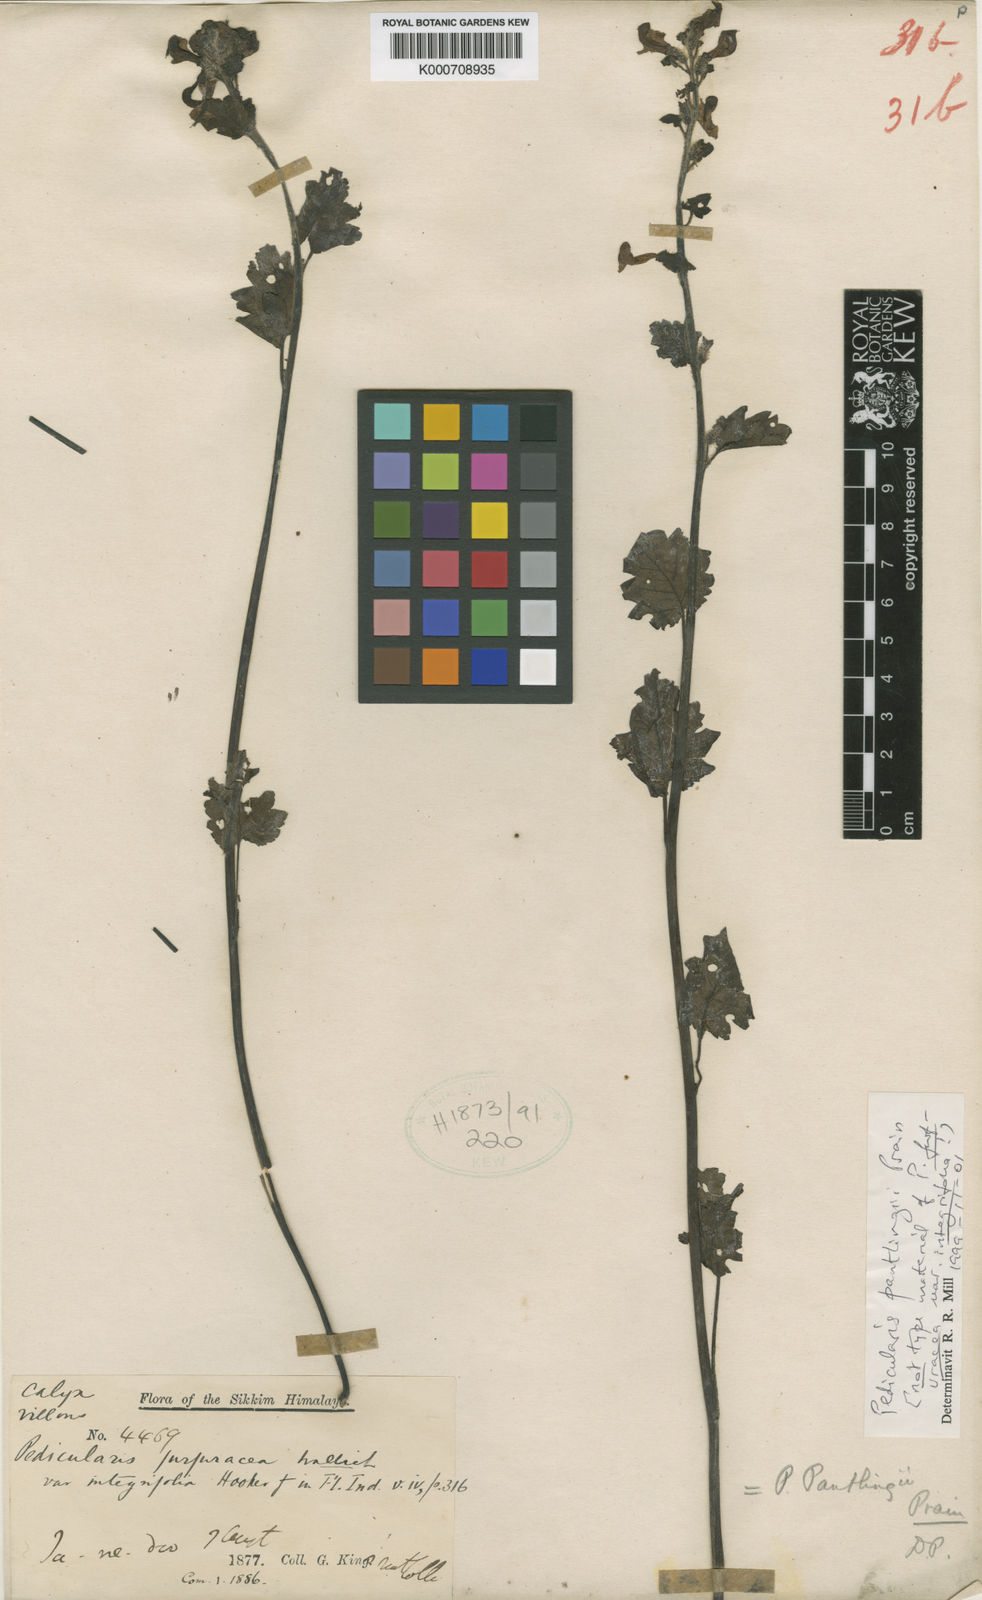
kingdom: Plantae
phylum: Tracheophyta
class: Magnoliopsida
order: Lamiales
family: Orobanchaceae
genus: Pedicularis
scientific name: Pedicularis pantlingii
